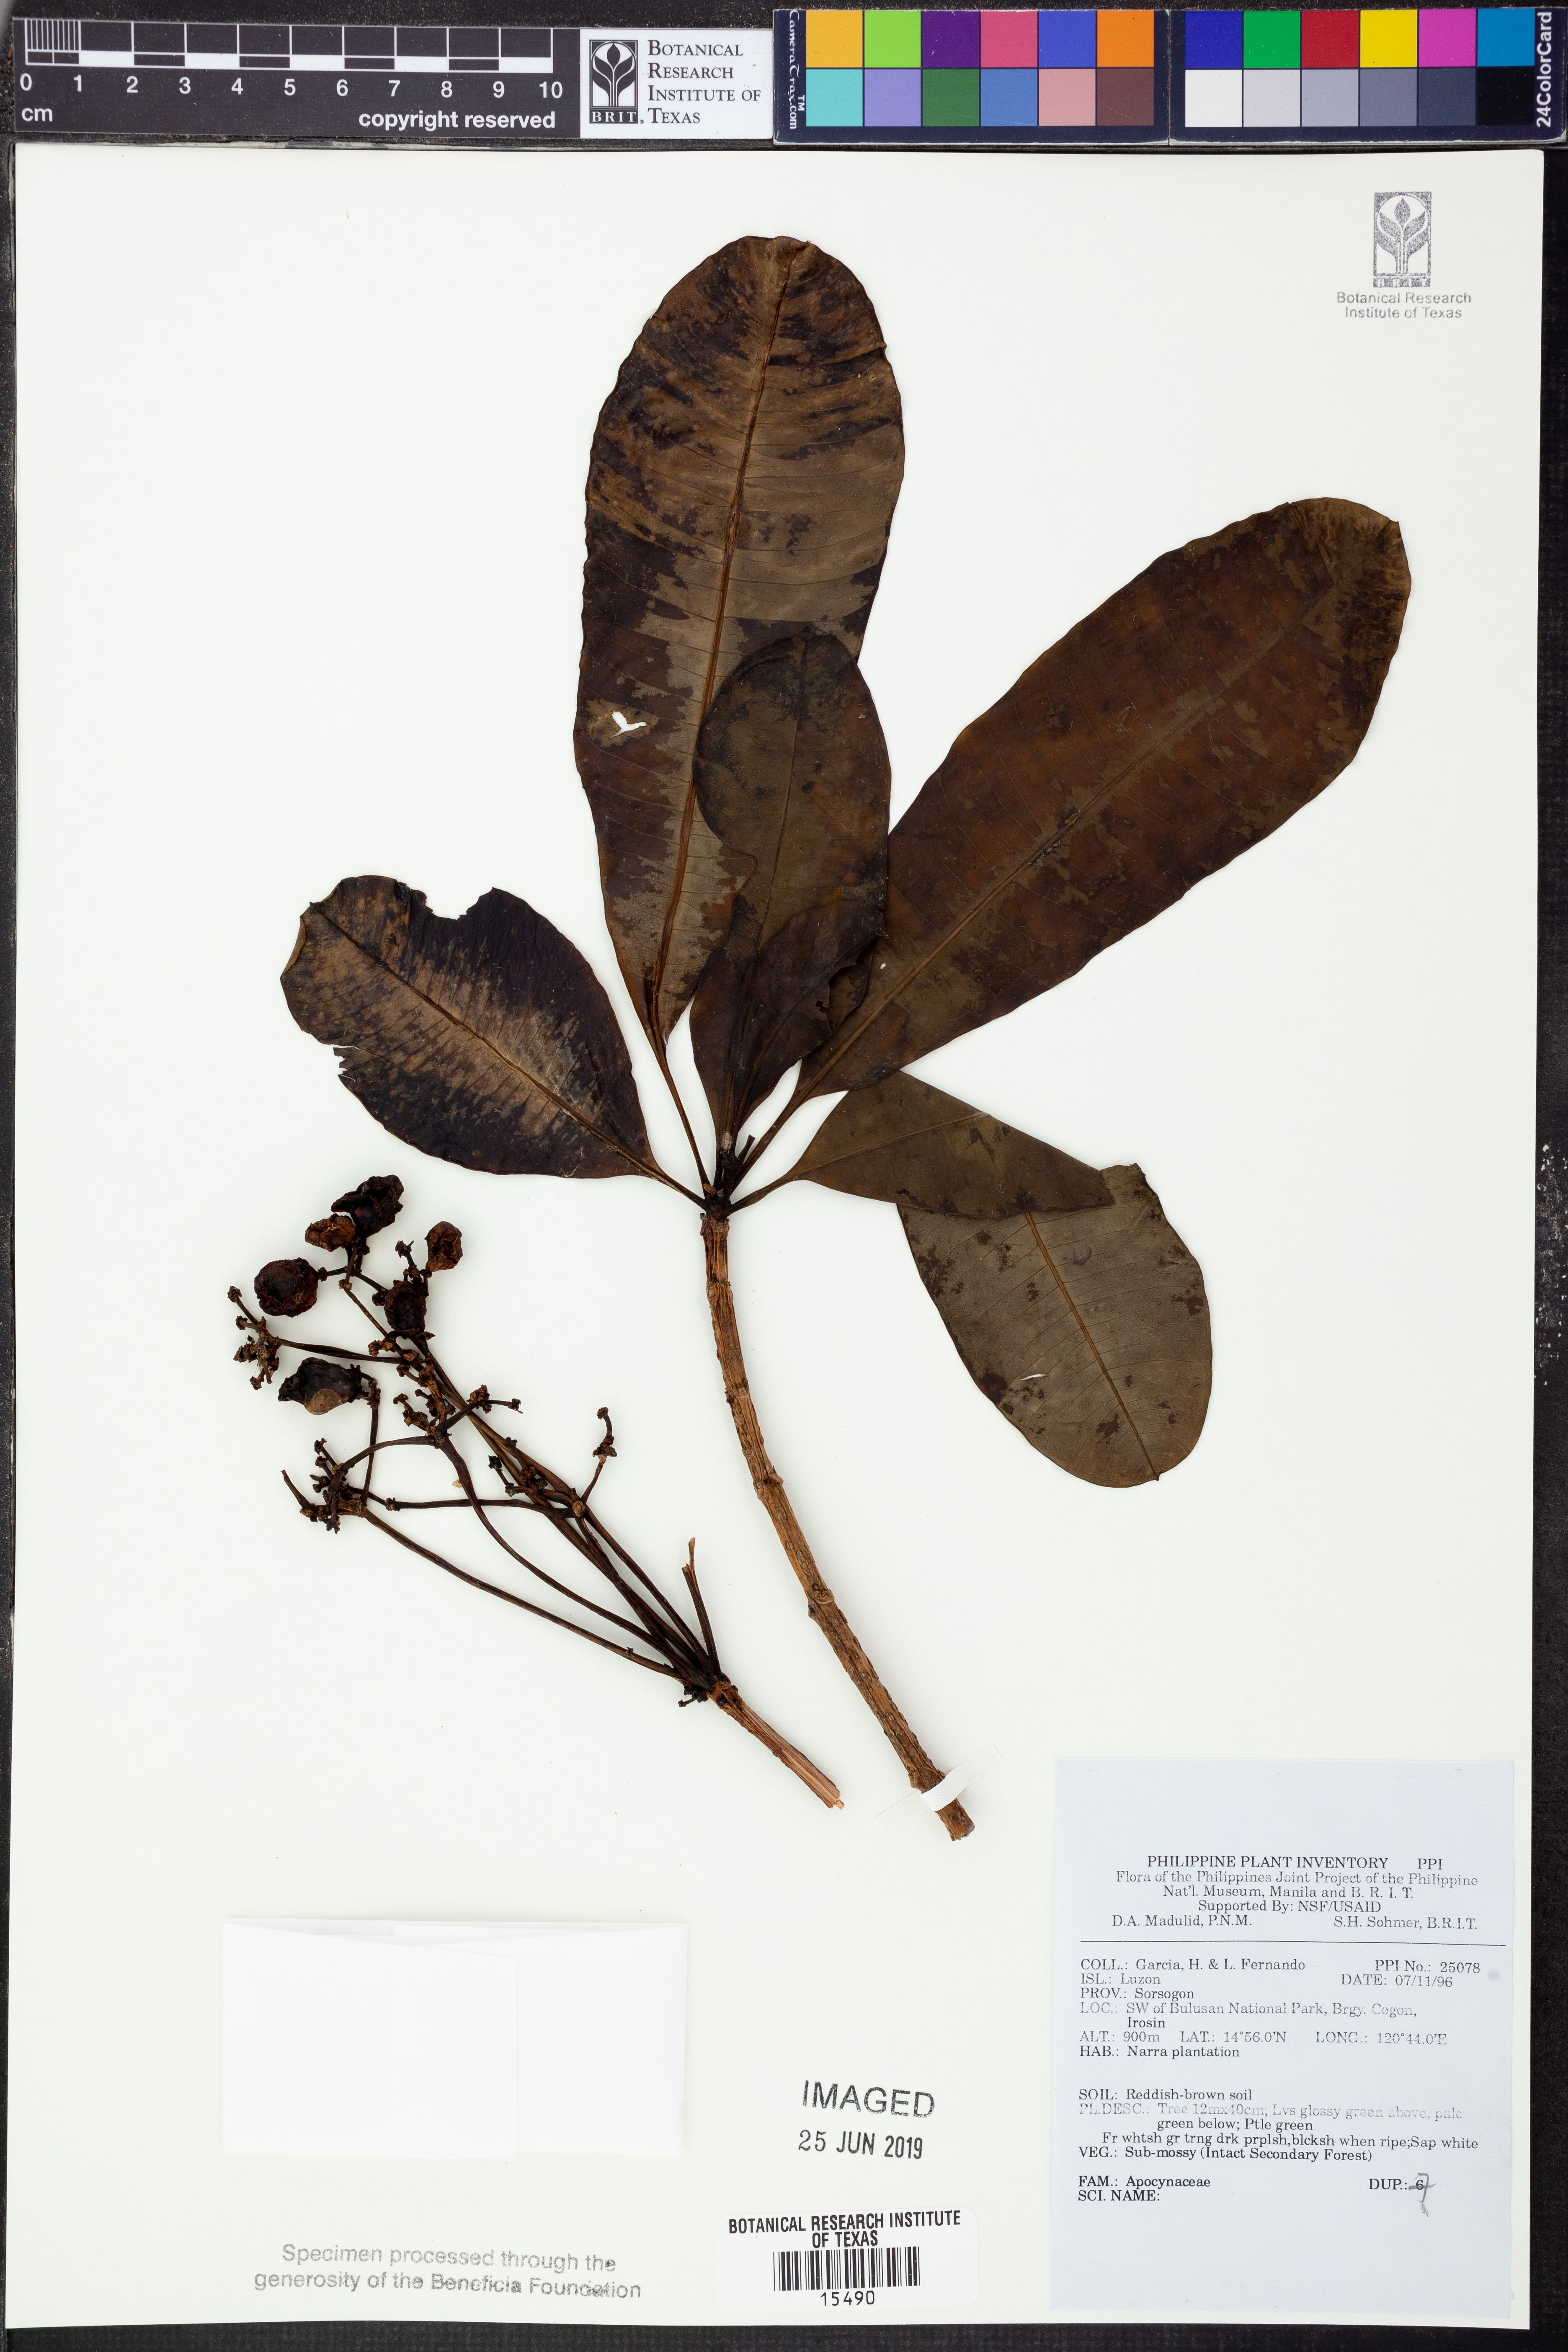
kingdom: Plantae
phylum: Tracheophyta
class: Magnoliopsida
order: Gentianales
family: Apocynaceae
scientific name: Apocynaceae
